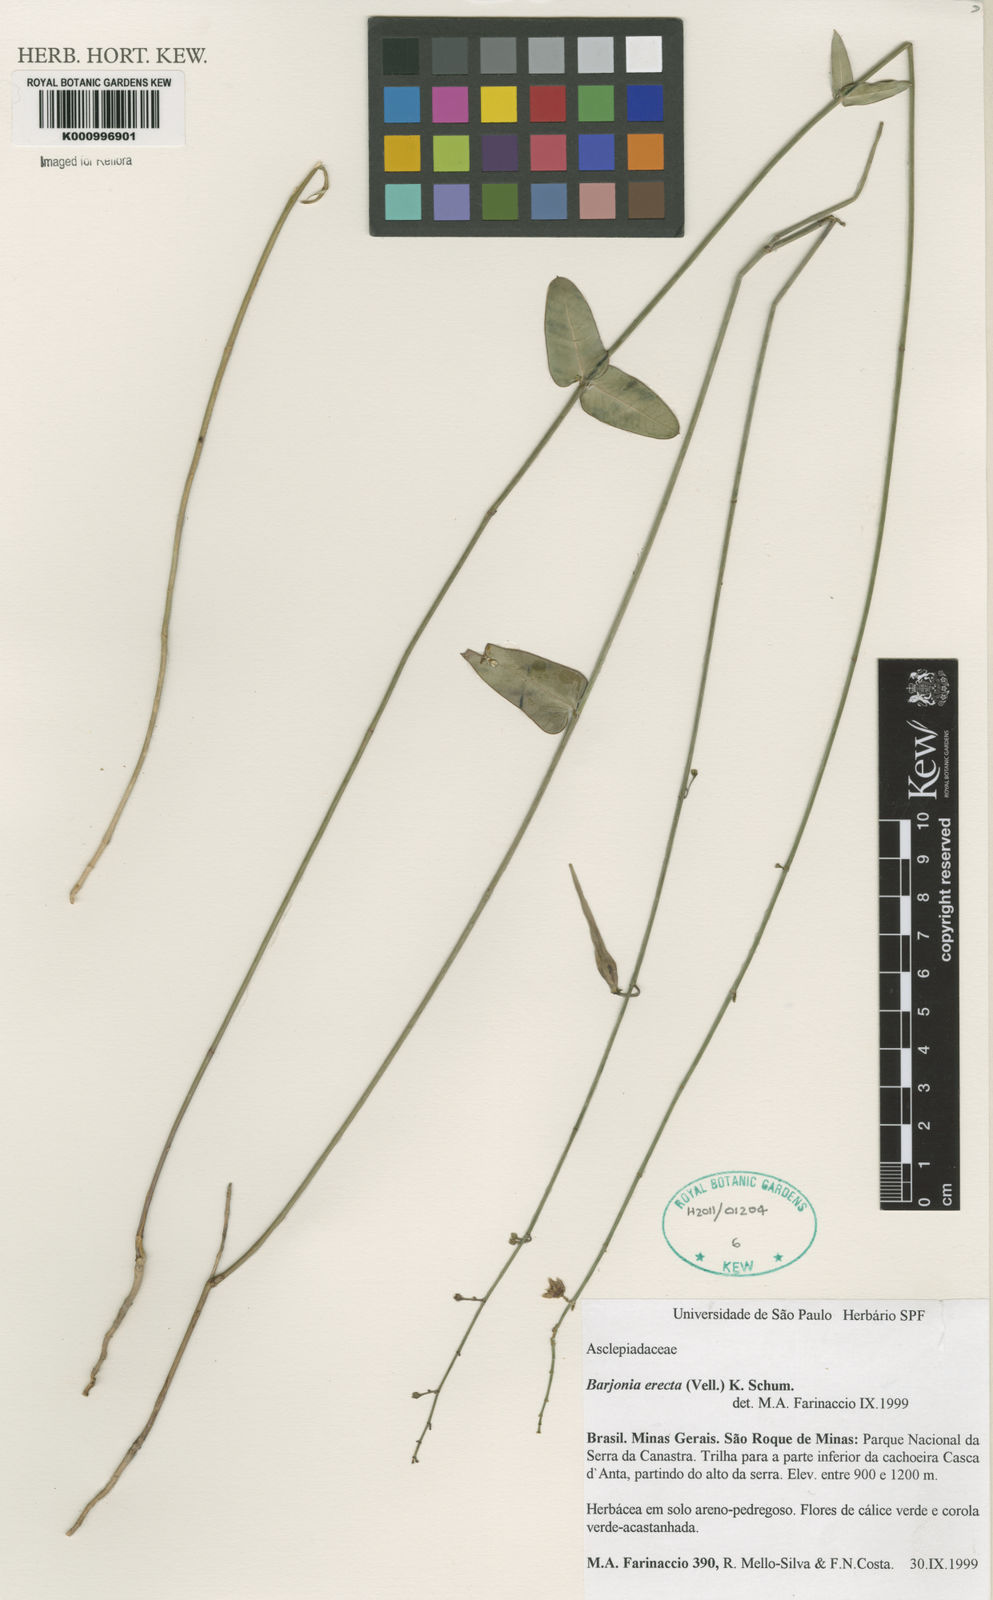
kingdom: Plantae
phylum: Tracheophyta
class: Magnoliopsida
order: Gentianales
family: Apocynaceae
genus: Barjonia
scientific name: Barjonia erecta
